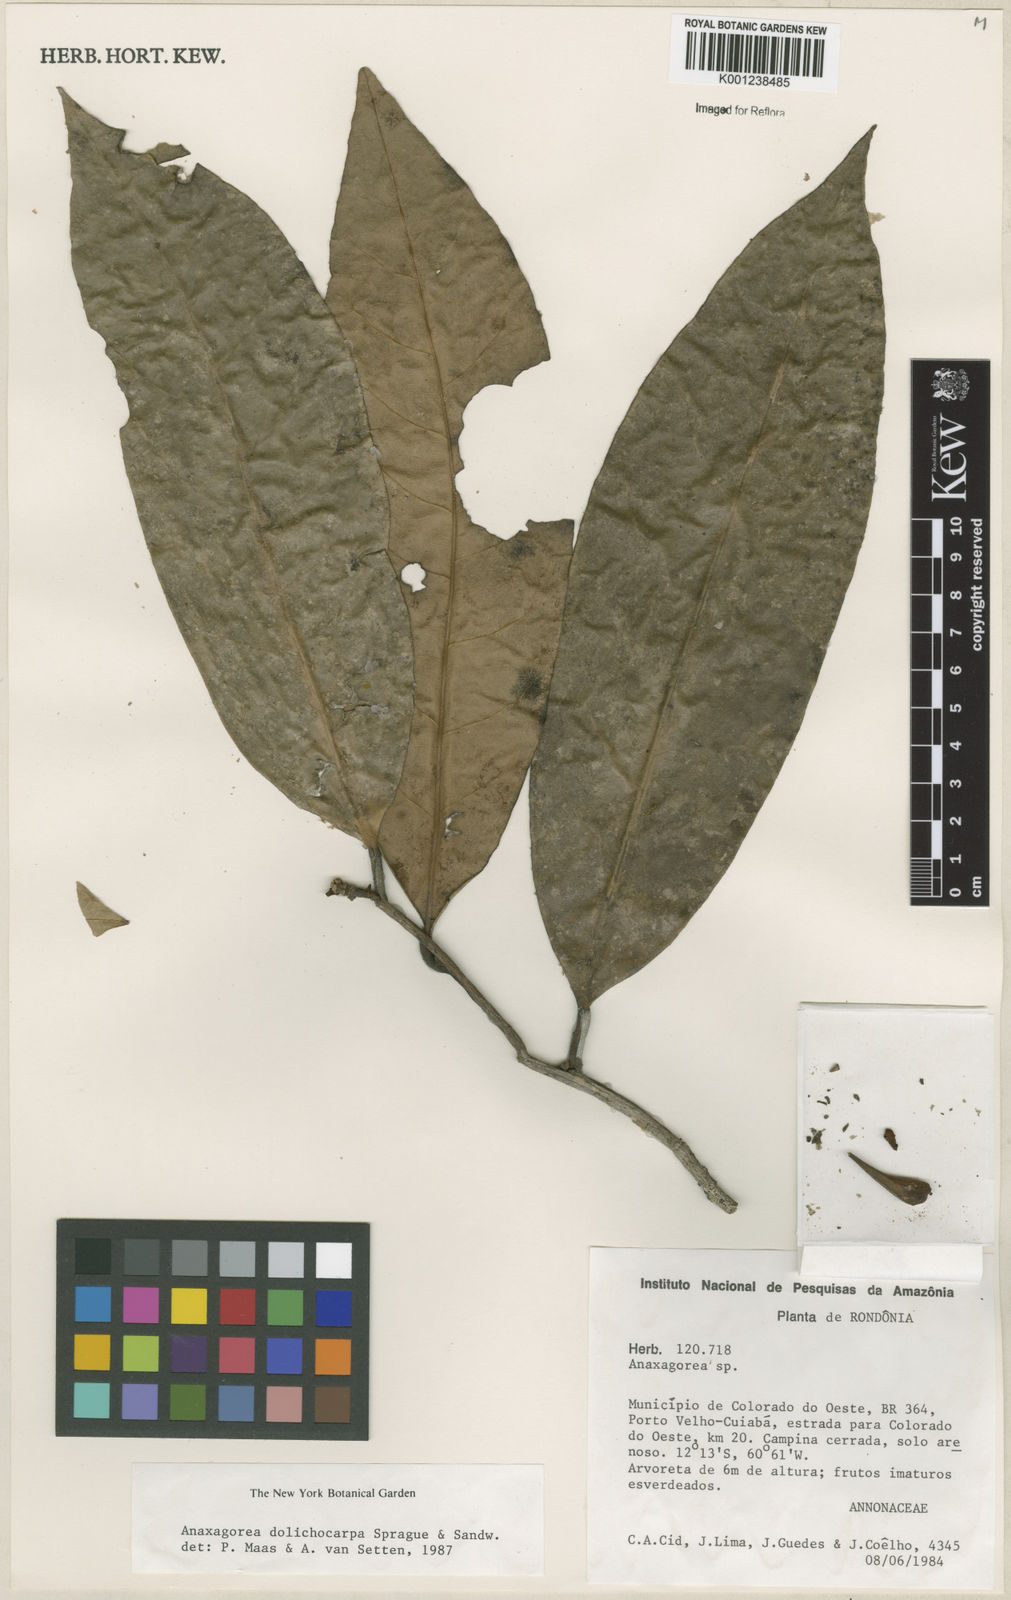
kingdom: Plantae
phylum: Tracheophyta
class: Magnoliopsida
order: Magnoliales
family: Annonaceae
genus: Anaxagorea
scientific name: Anaxagorea dolichocarpa
